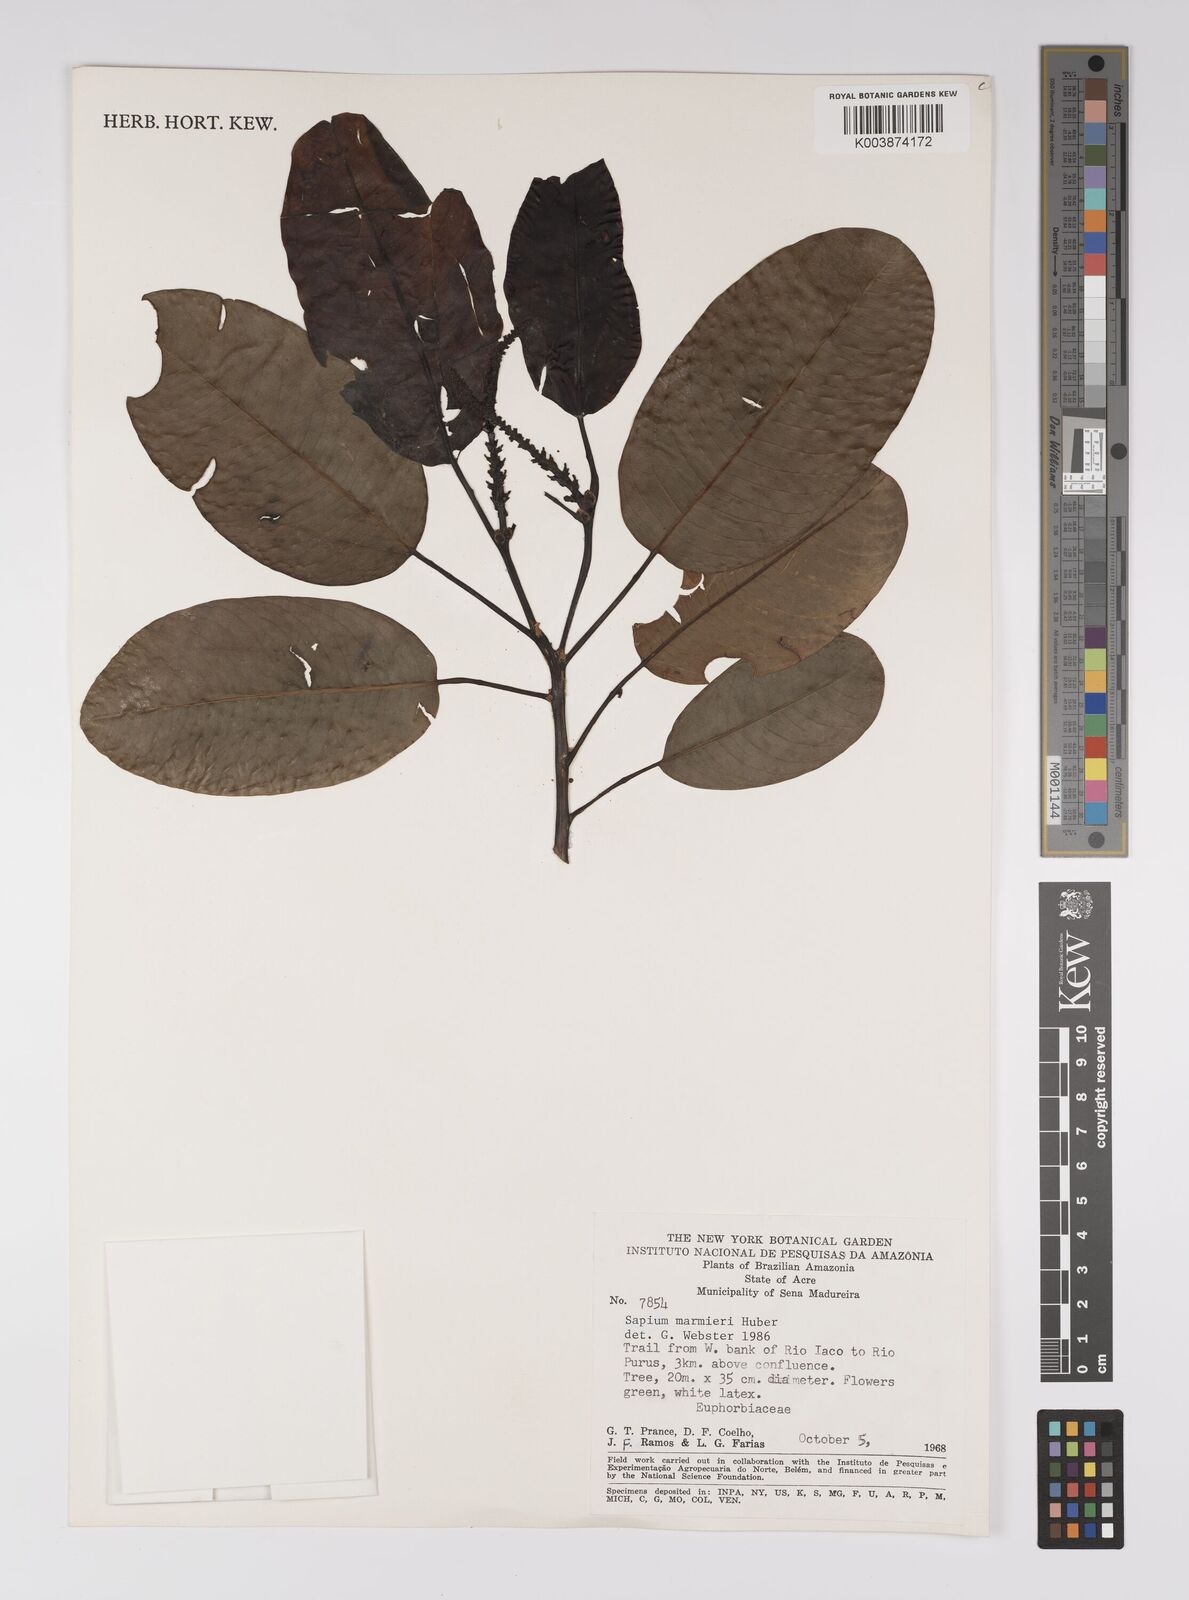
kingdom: Plantae
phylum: Tracheophyta
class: Magnoliopsida
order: Malpighiales
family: Euphorbiaceae
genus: Sapium
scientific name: Sapium marmieri
